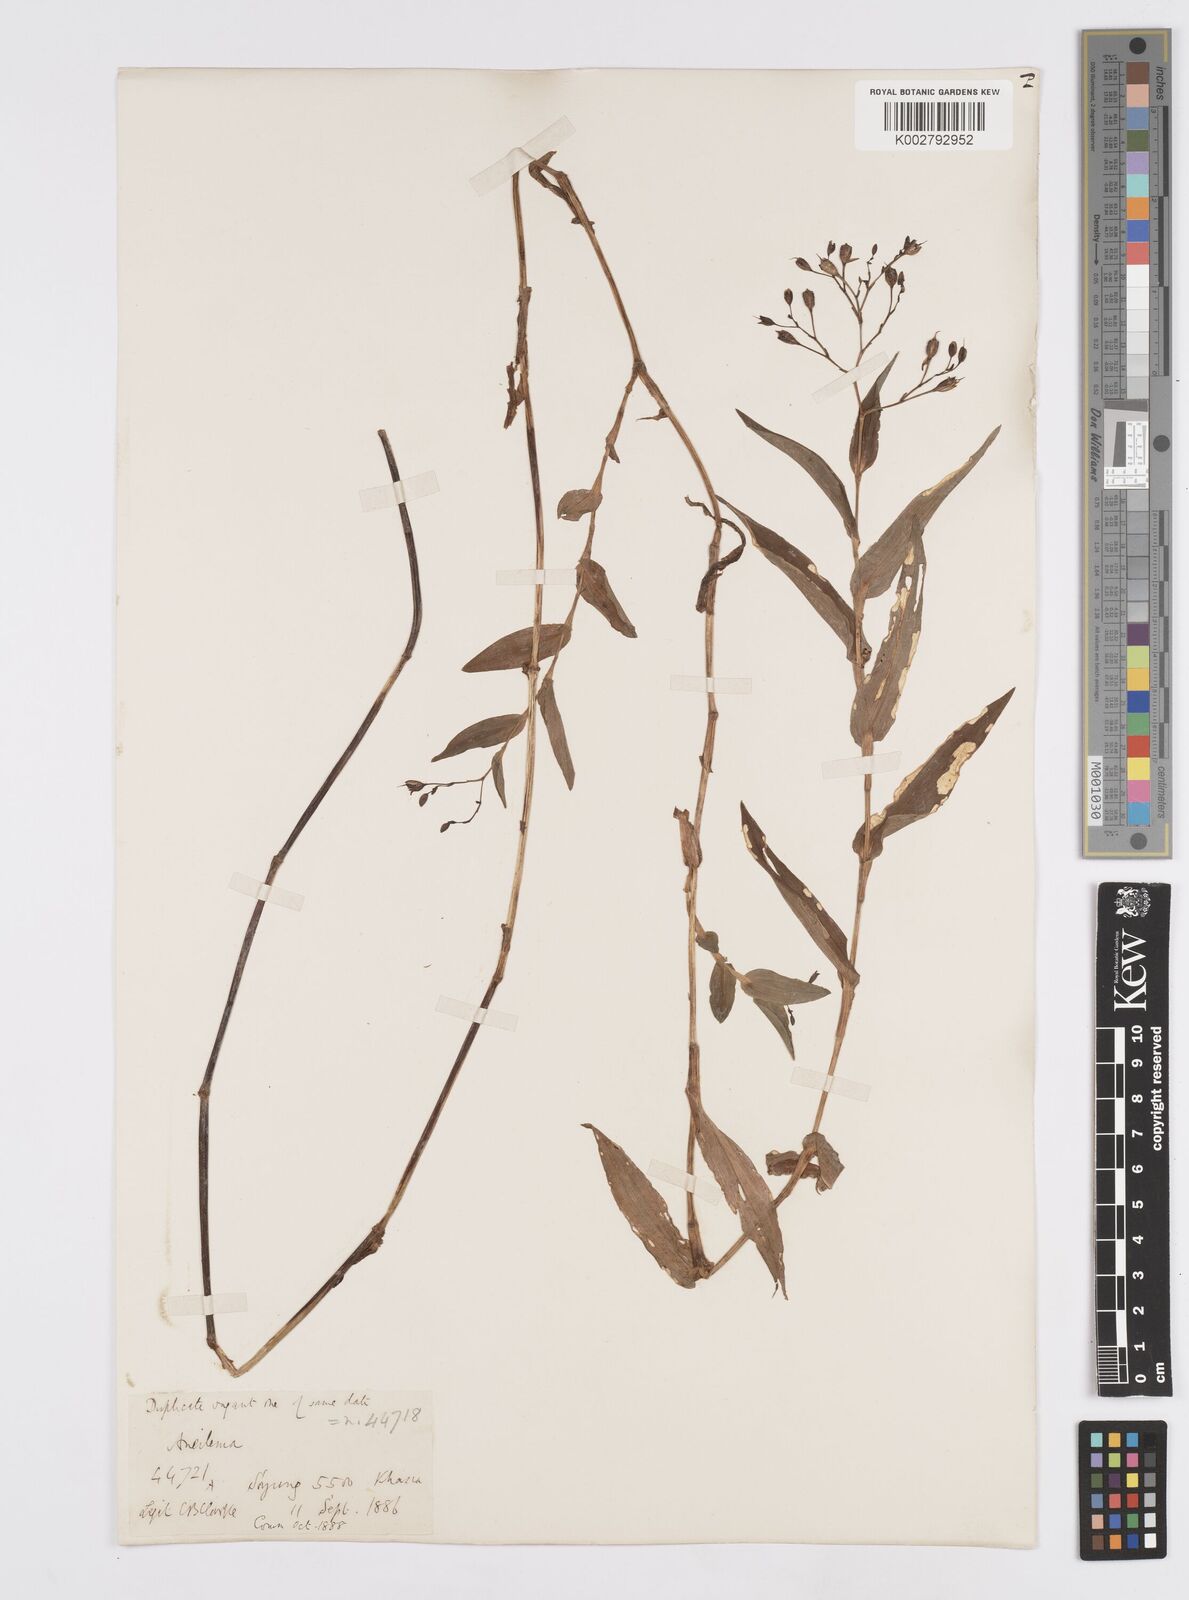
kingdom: Plantae
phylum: Tracheophyta
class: Liliopsida
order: Commelinales
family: Commelinaceae
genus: Murdannia
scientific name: Murdannia hookeri
